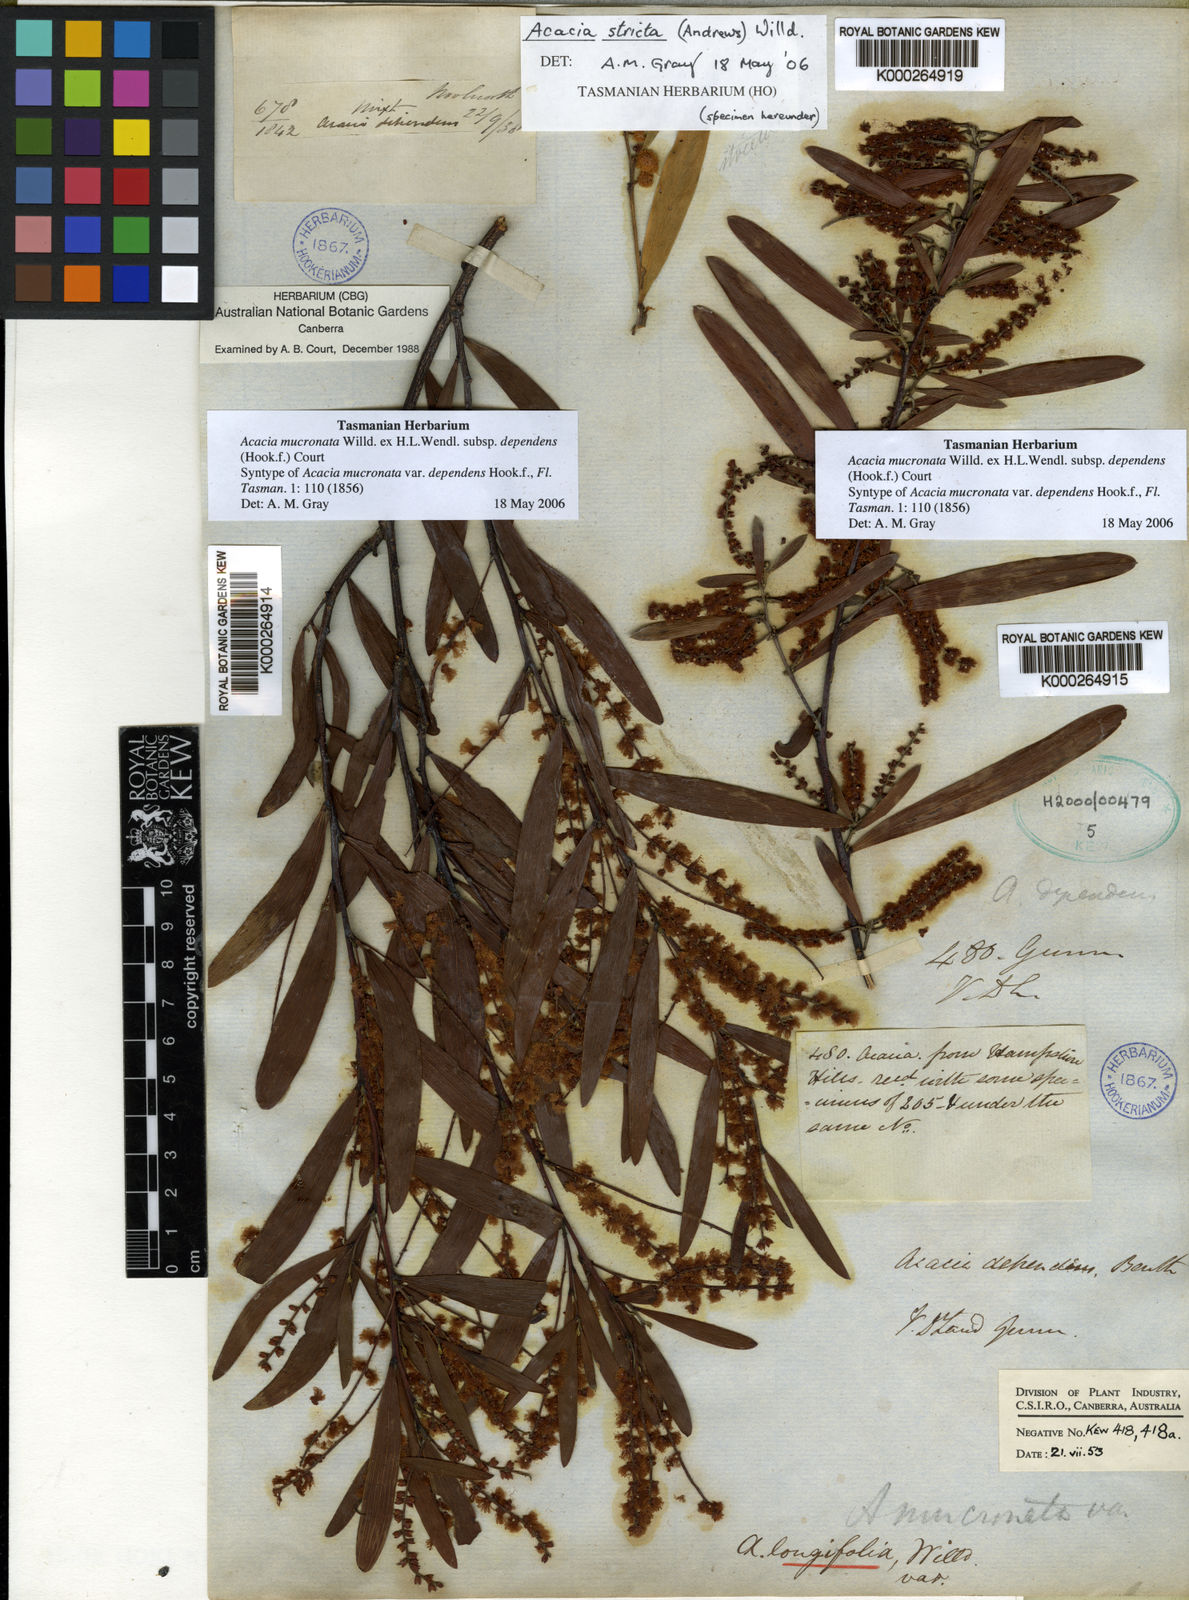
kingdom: Plantae
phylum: Tracheophyta
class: Magnoliopsida
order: Fabales
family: Fabaceae
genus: Acacia
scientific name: Acacia mucronata
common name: Variable sallow wattle
